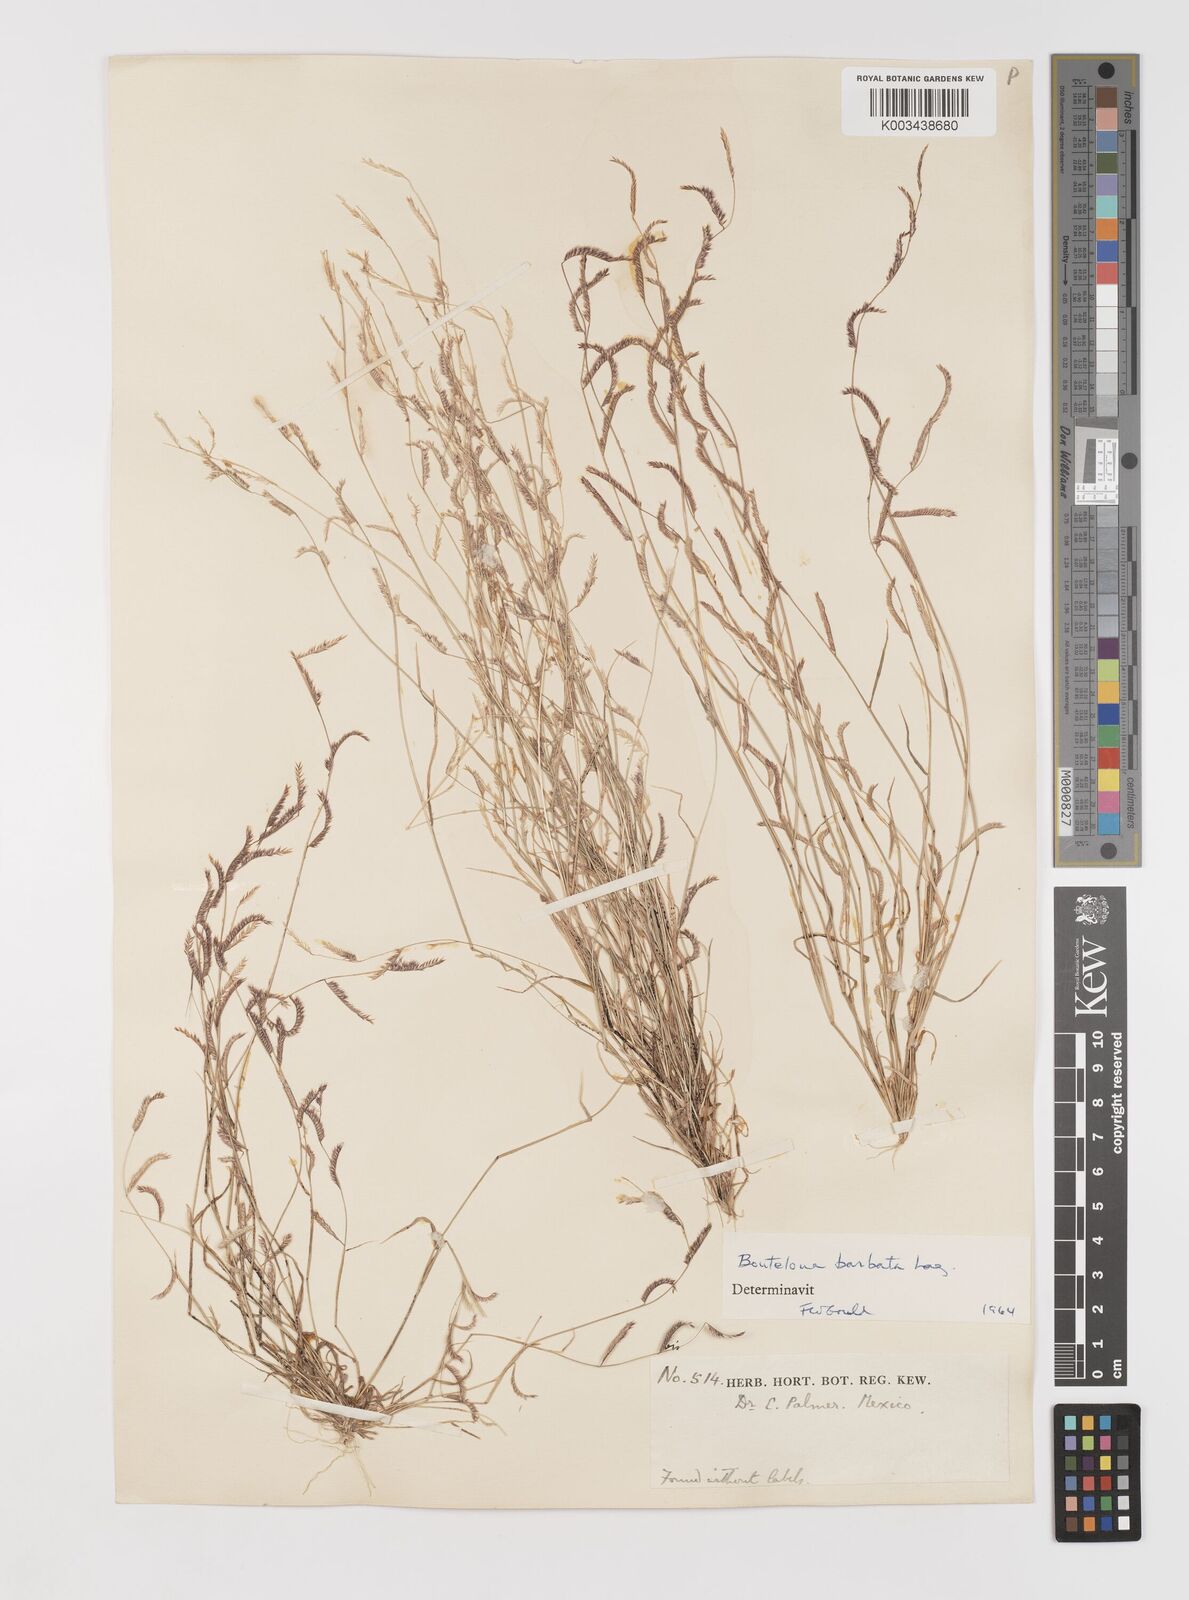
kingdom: Plantae
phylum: Tracheophyta
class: Liliopsida
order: Poales
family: Poaceae
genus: Bouteloua
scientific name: Bouteloua
